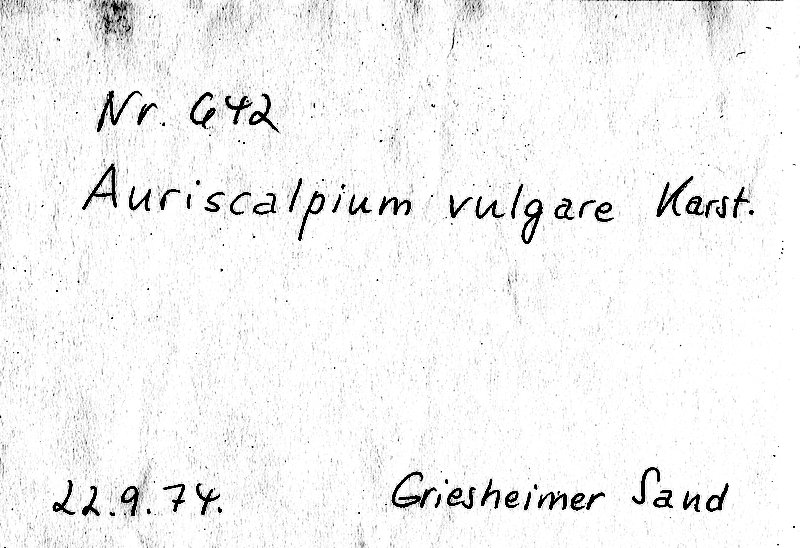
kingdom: Fungi
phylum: Basidiomycota
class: Agaricomycetes
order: Russulales
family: Auriscalpiaceae
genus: Auriscalpium
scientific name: Auriscalpium vulgare
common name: Earpick fungus
